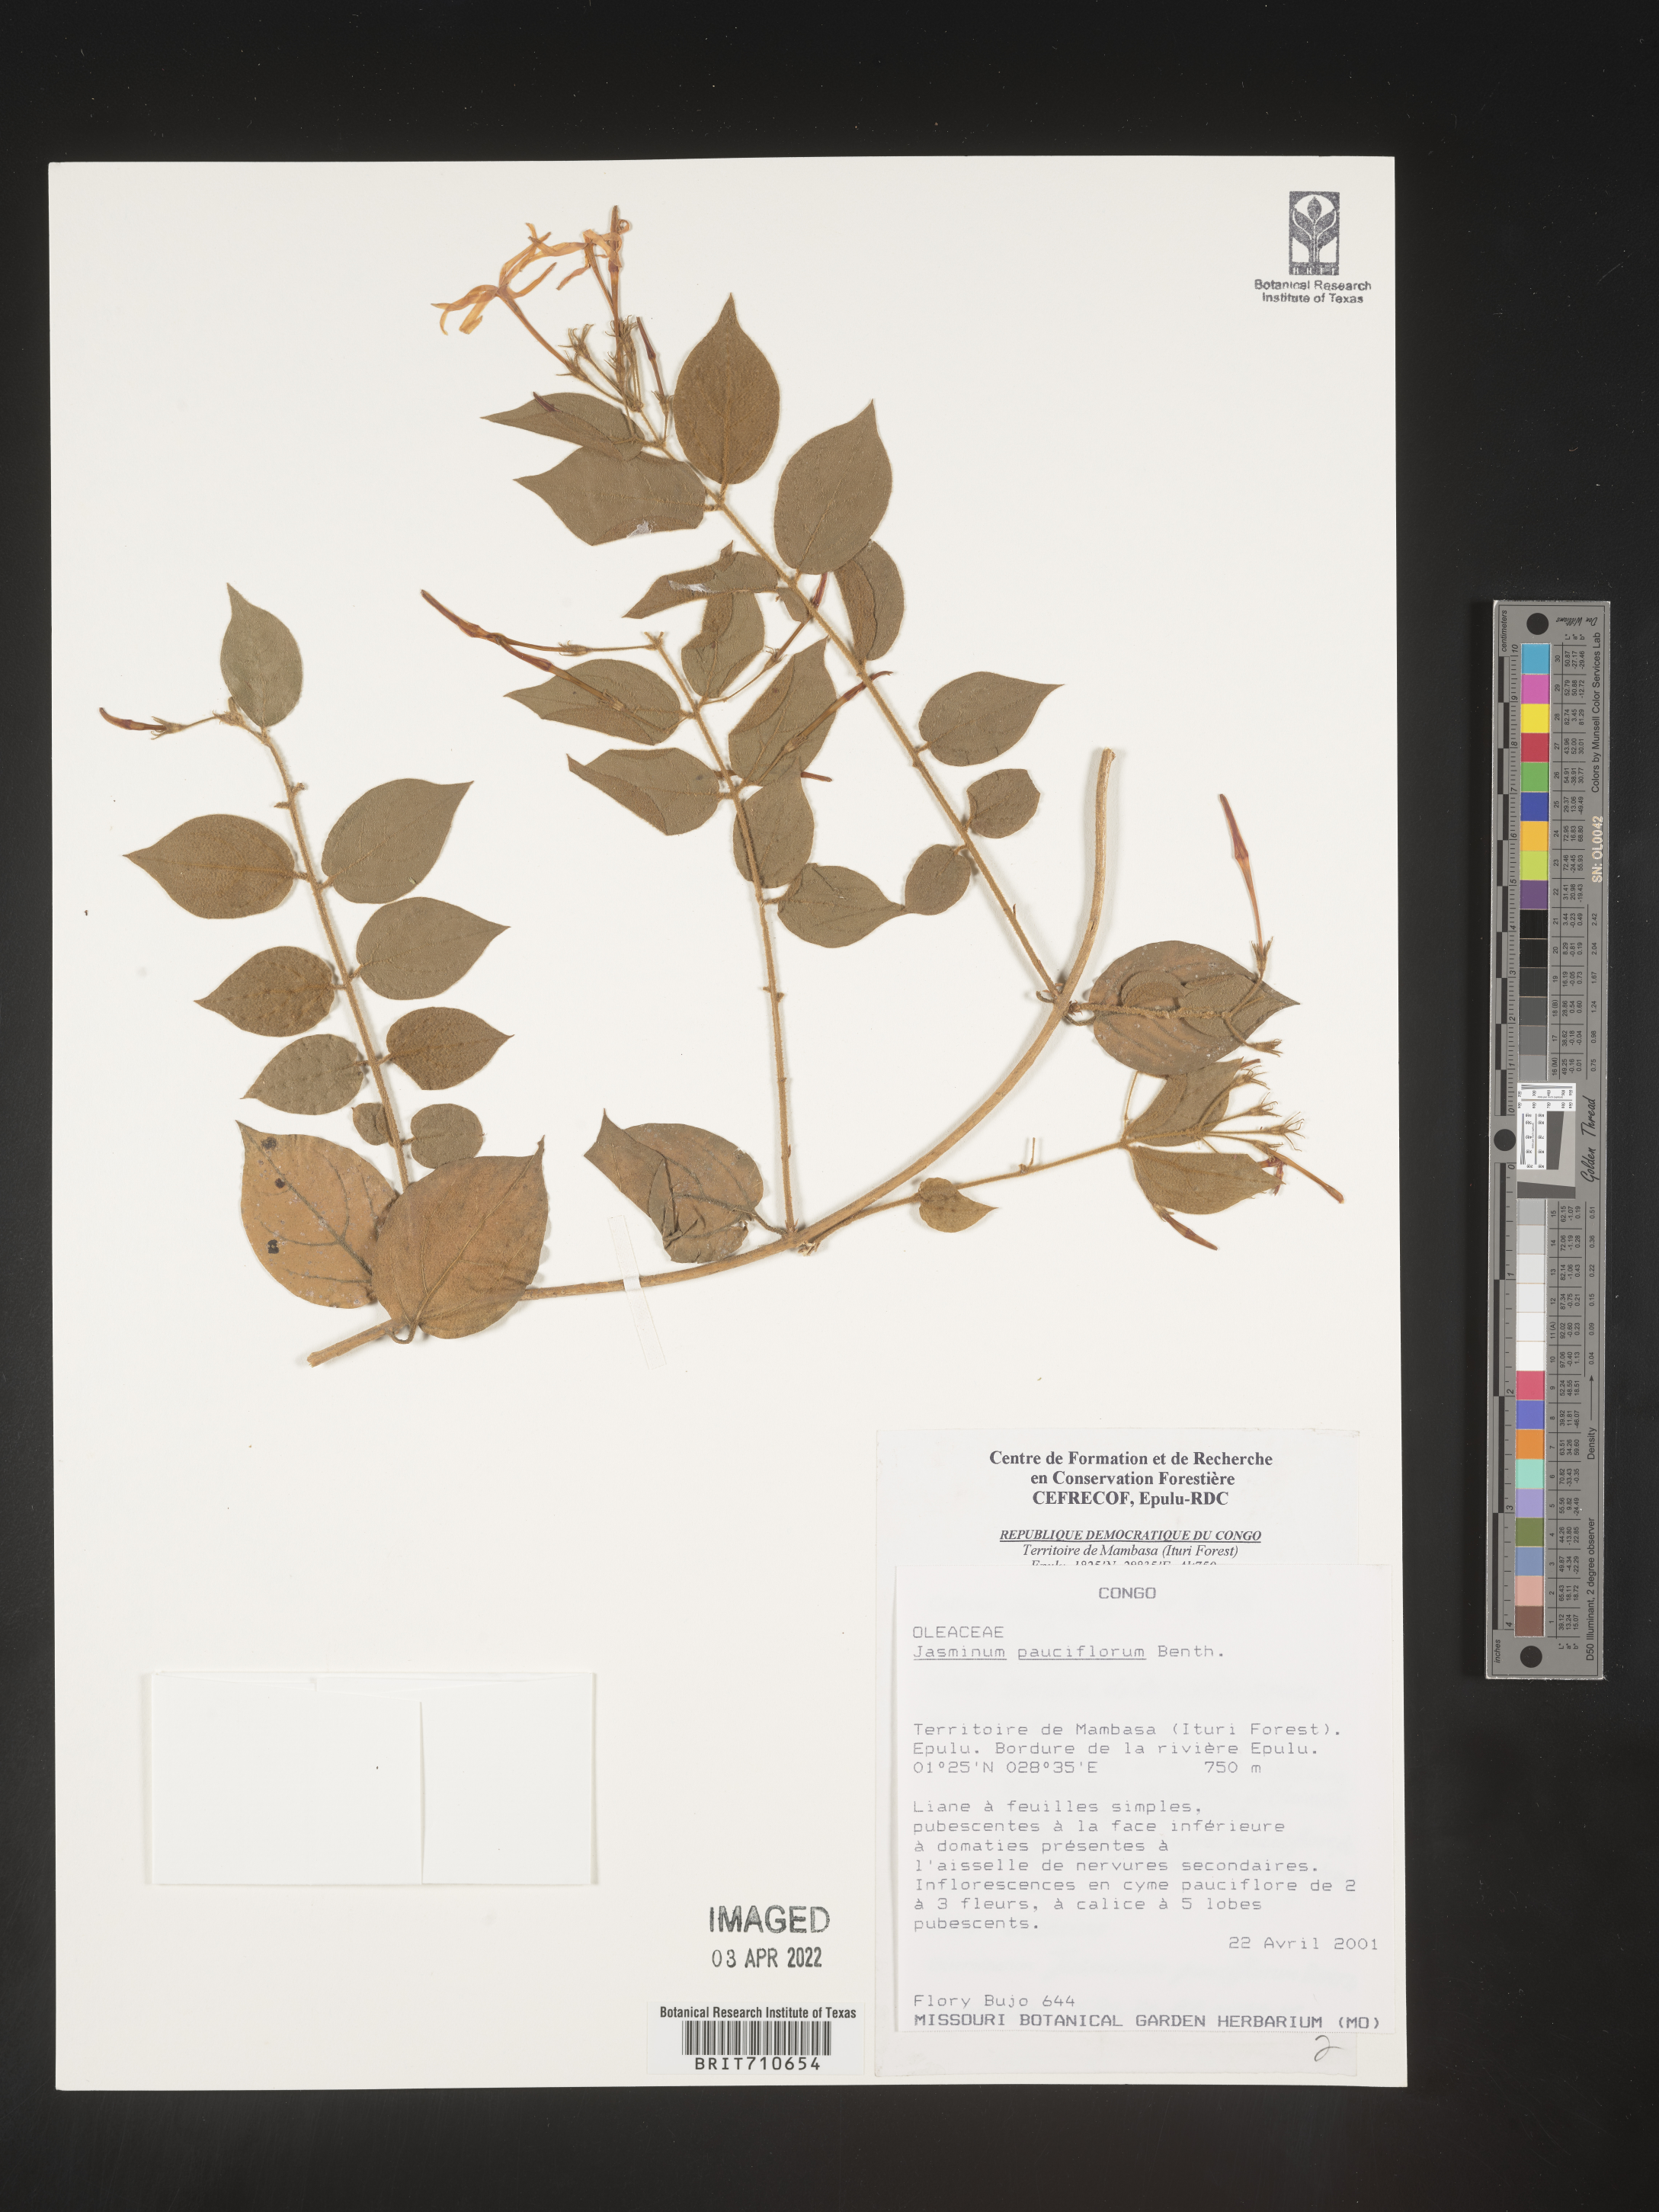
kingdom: Plantae
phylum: Tracheophyta
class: Magnoliopsida
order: Lamiales
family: Oleaceae
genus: Jasminum
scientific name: Jasminum
